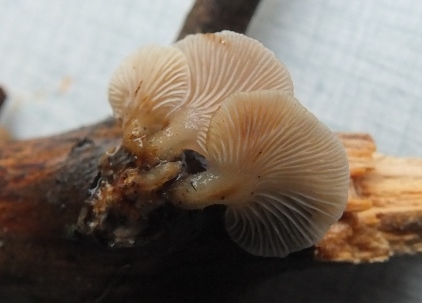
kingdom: Fungi
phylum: Basidiomycota
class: Agaricomycetes
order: Agaricales
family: Mycenaceae
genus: Panellus
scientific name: Panellus mitis
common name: mild epaulethat
